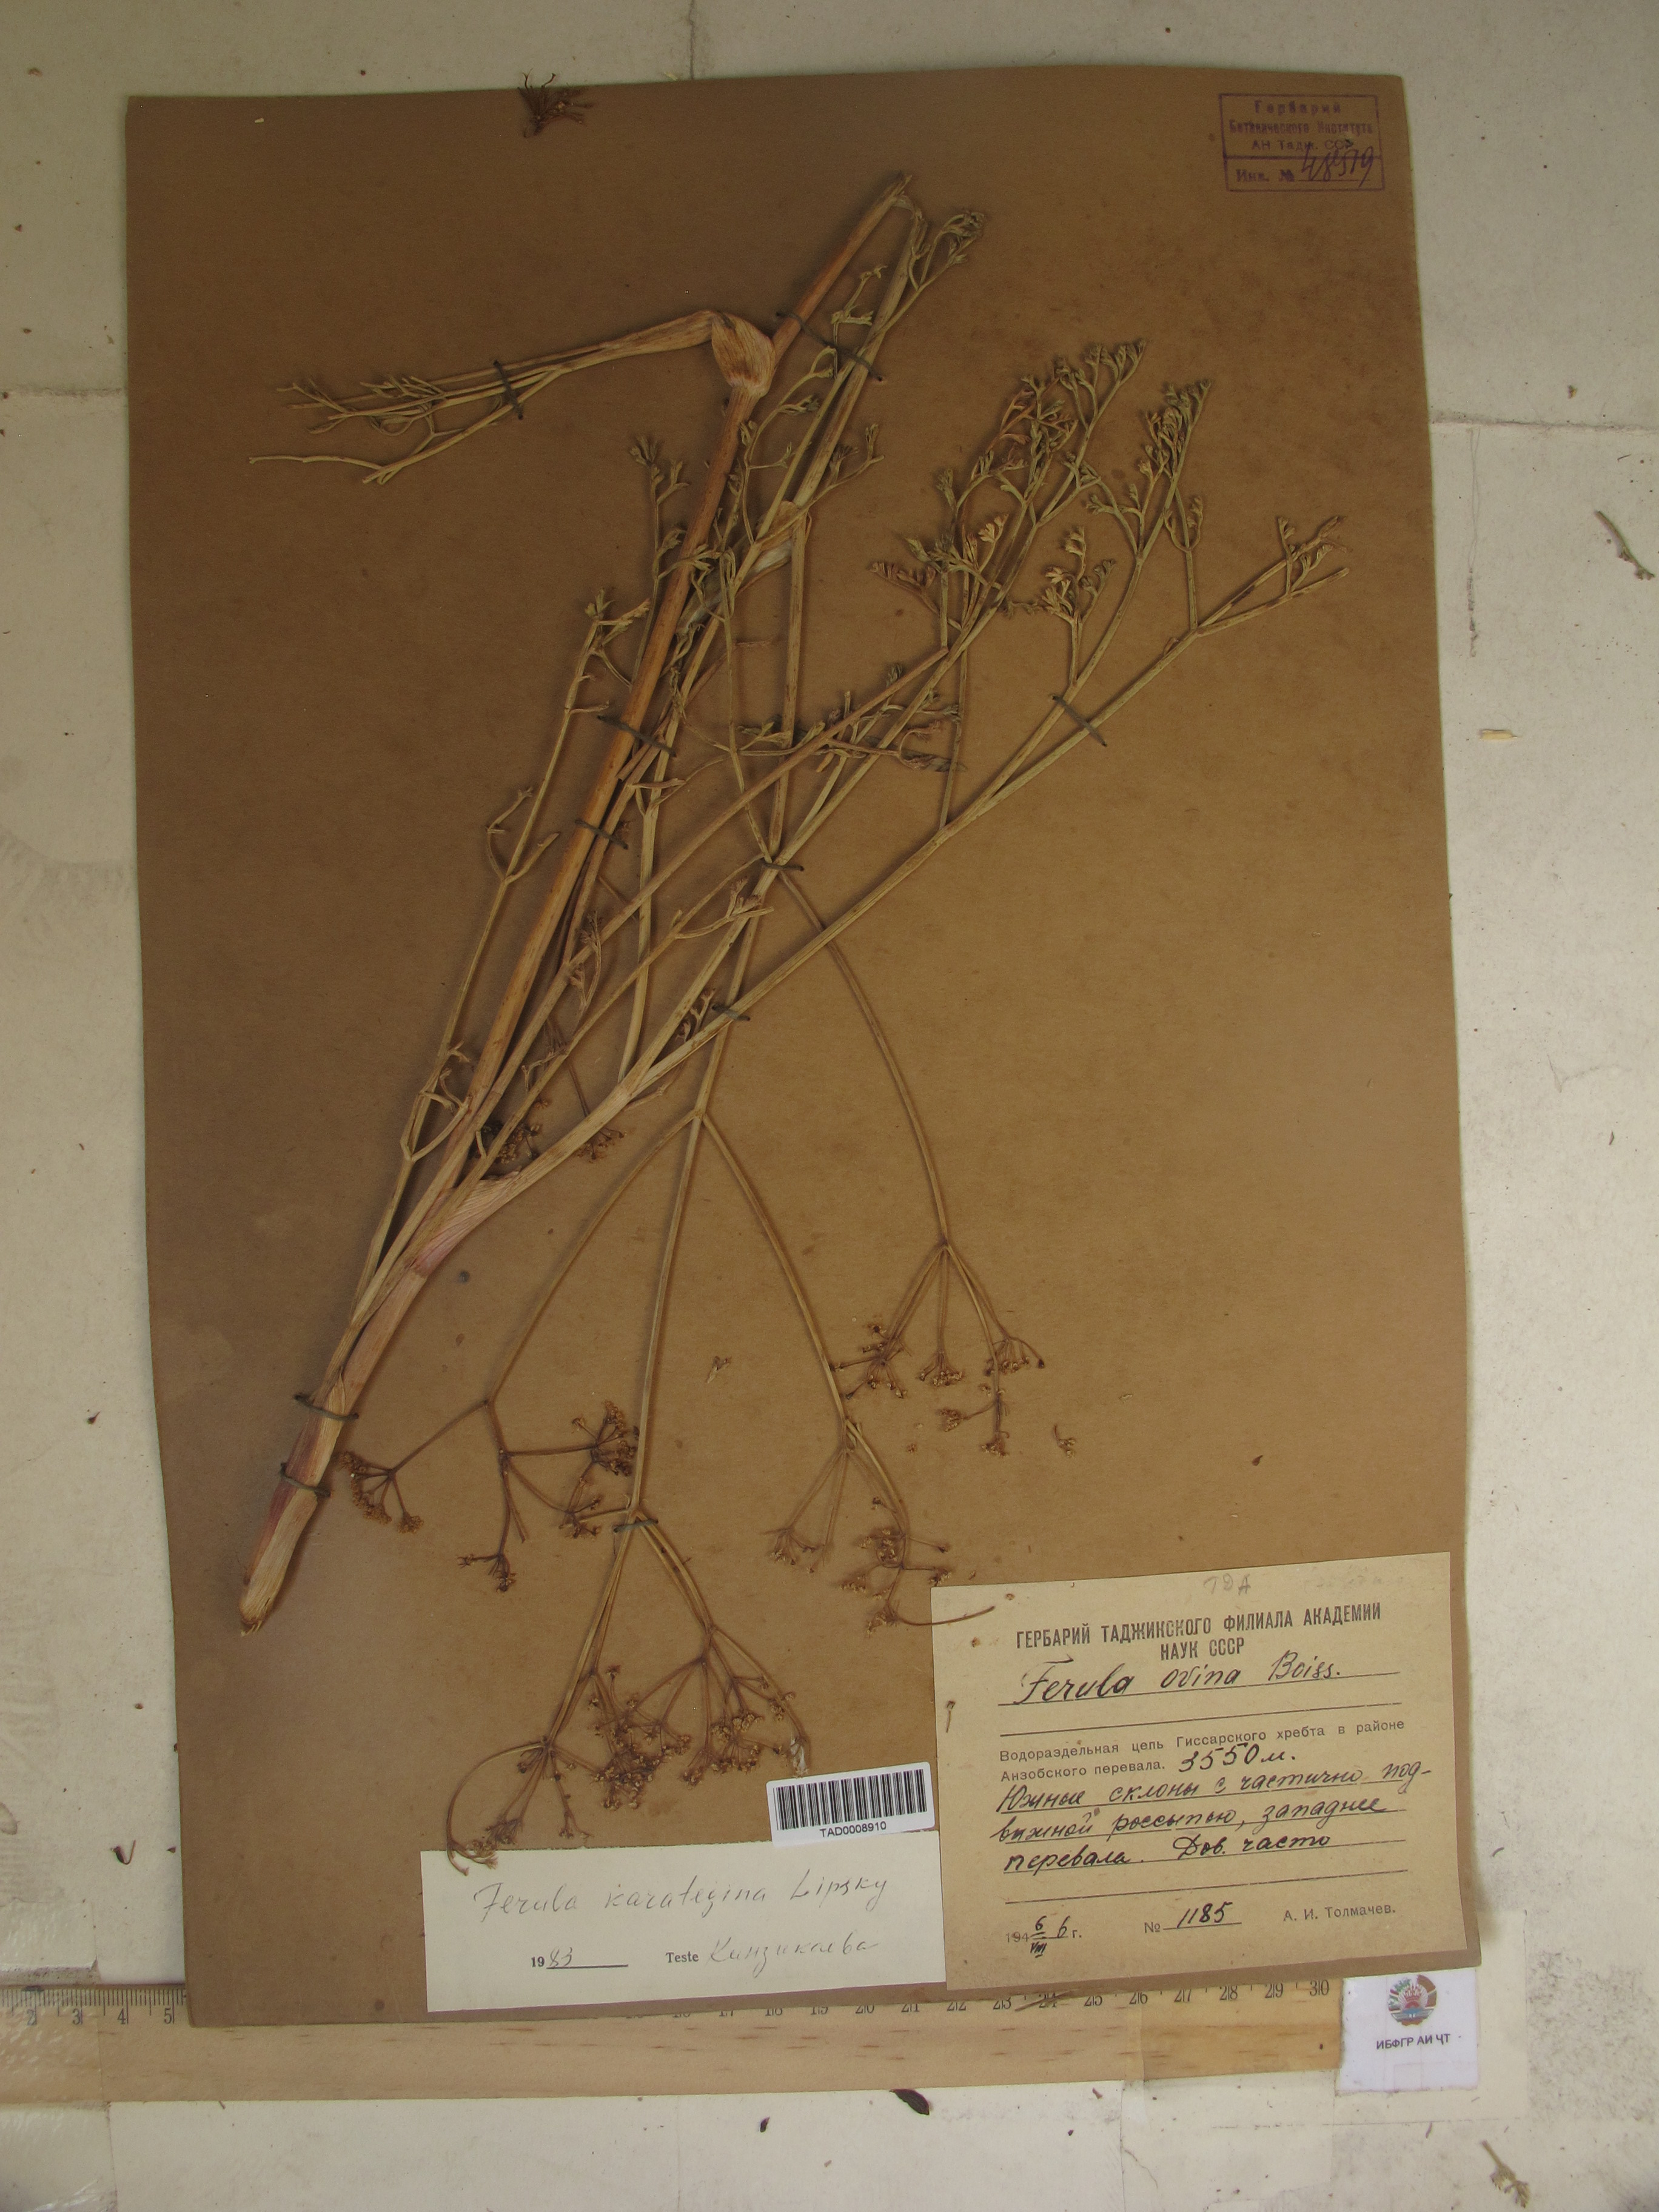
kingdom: Plantae
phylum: Tracheophyta
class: Magnoliopsida
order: Apiales
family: Apiaceae
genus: Ferula
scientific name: Ferula karategina
